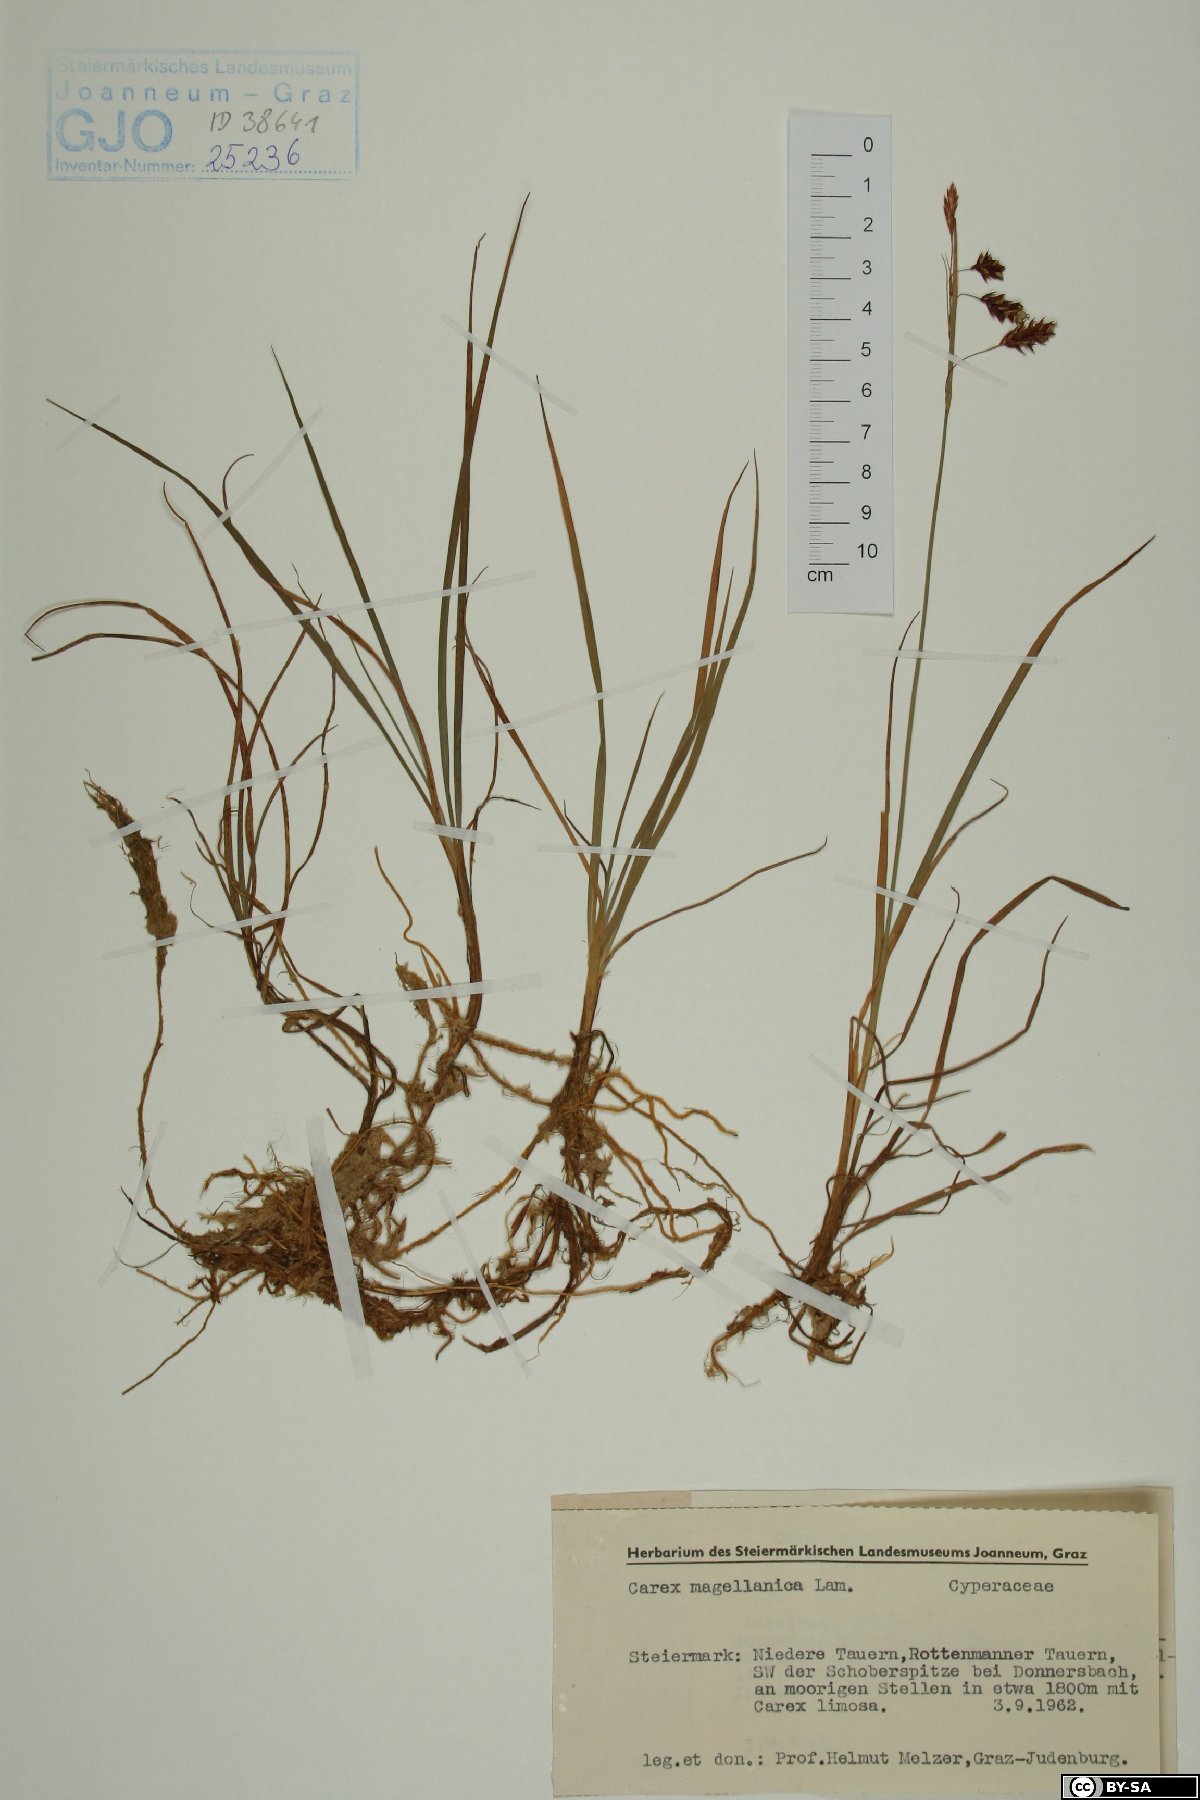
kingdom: Plantae
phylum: Tracheophyta
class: Liliopsida
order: Poales
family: Cyperaceae
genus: Carex
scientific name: Carex magellanica
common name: Bog sedge
